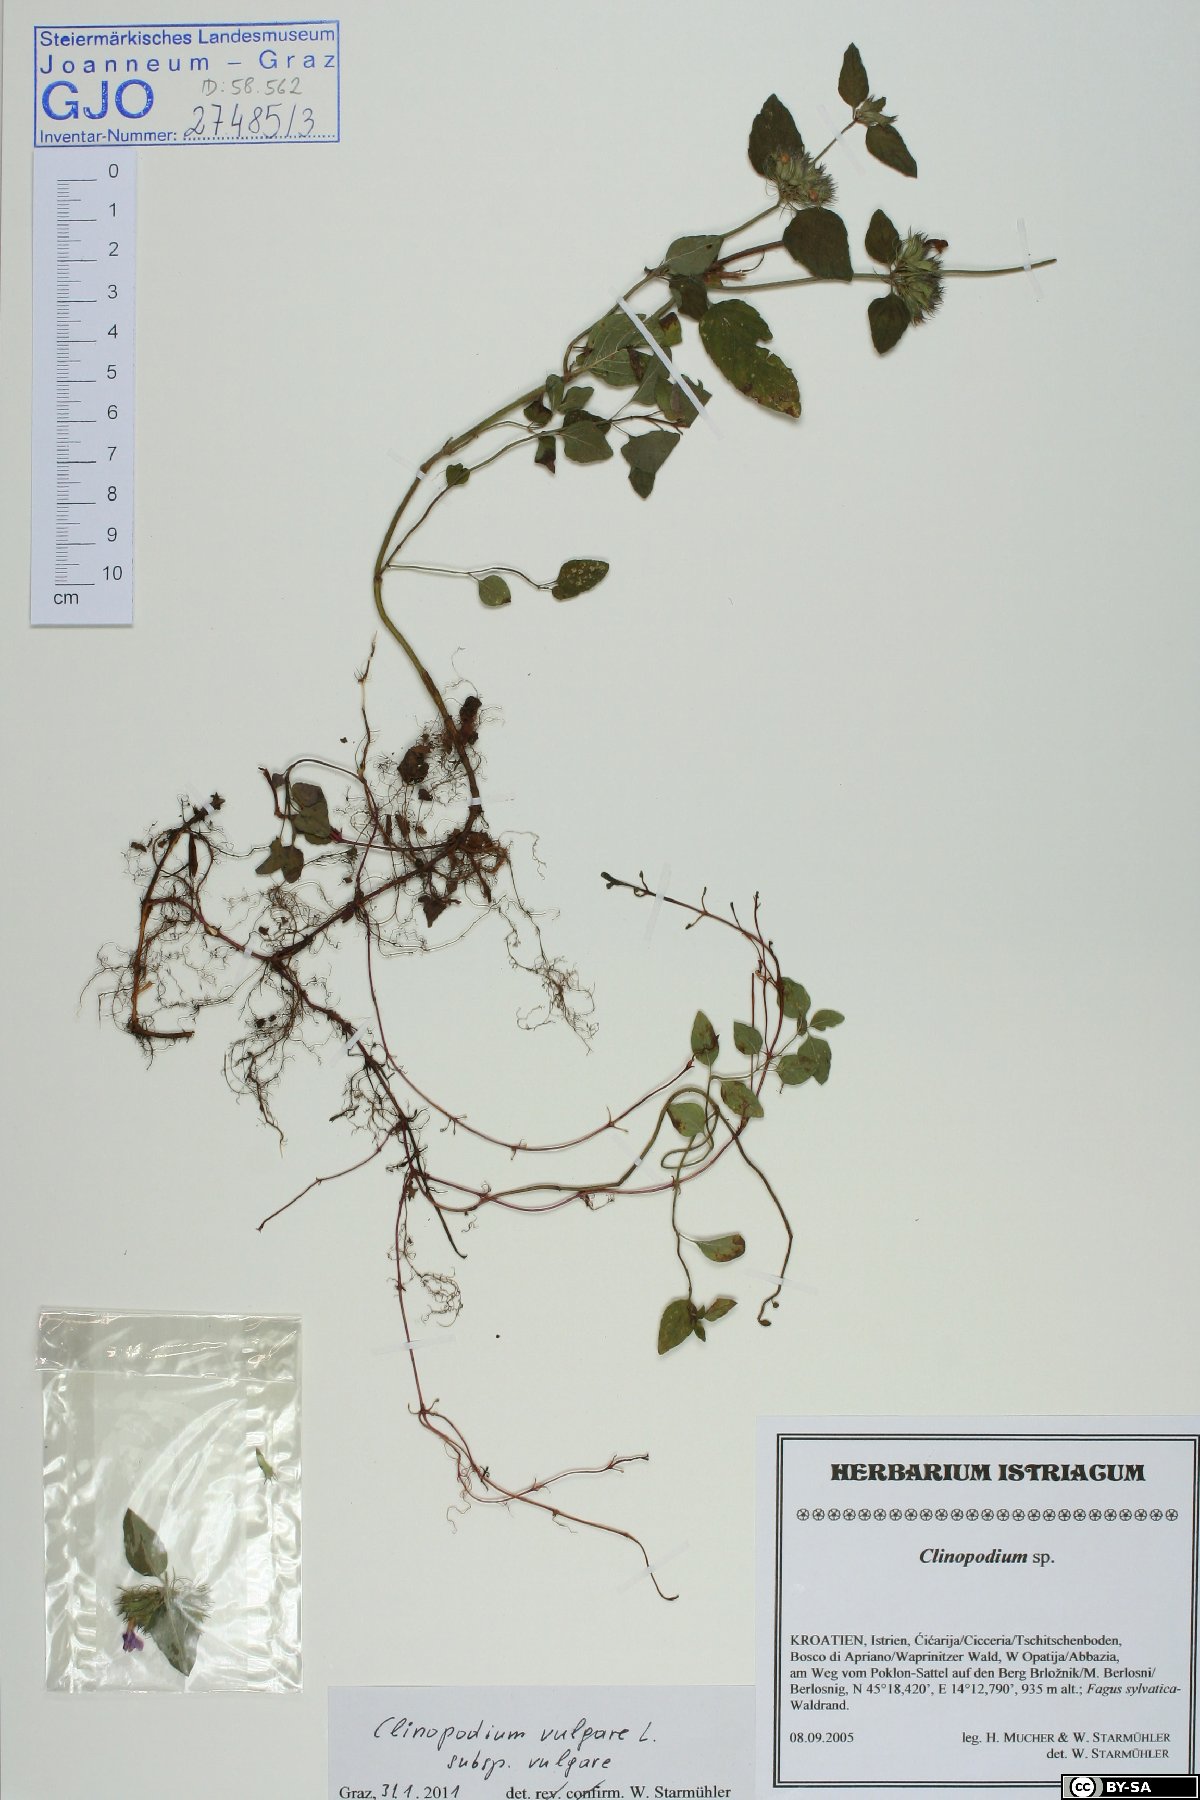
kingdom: Plantae
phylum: Tracheophyta
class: Magnoliopsida
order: Lamiales
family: Lamiaceae
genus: Clinopodium
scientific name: Clinopodium vulgare
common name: Wild basil
